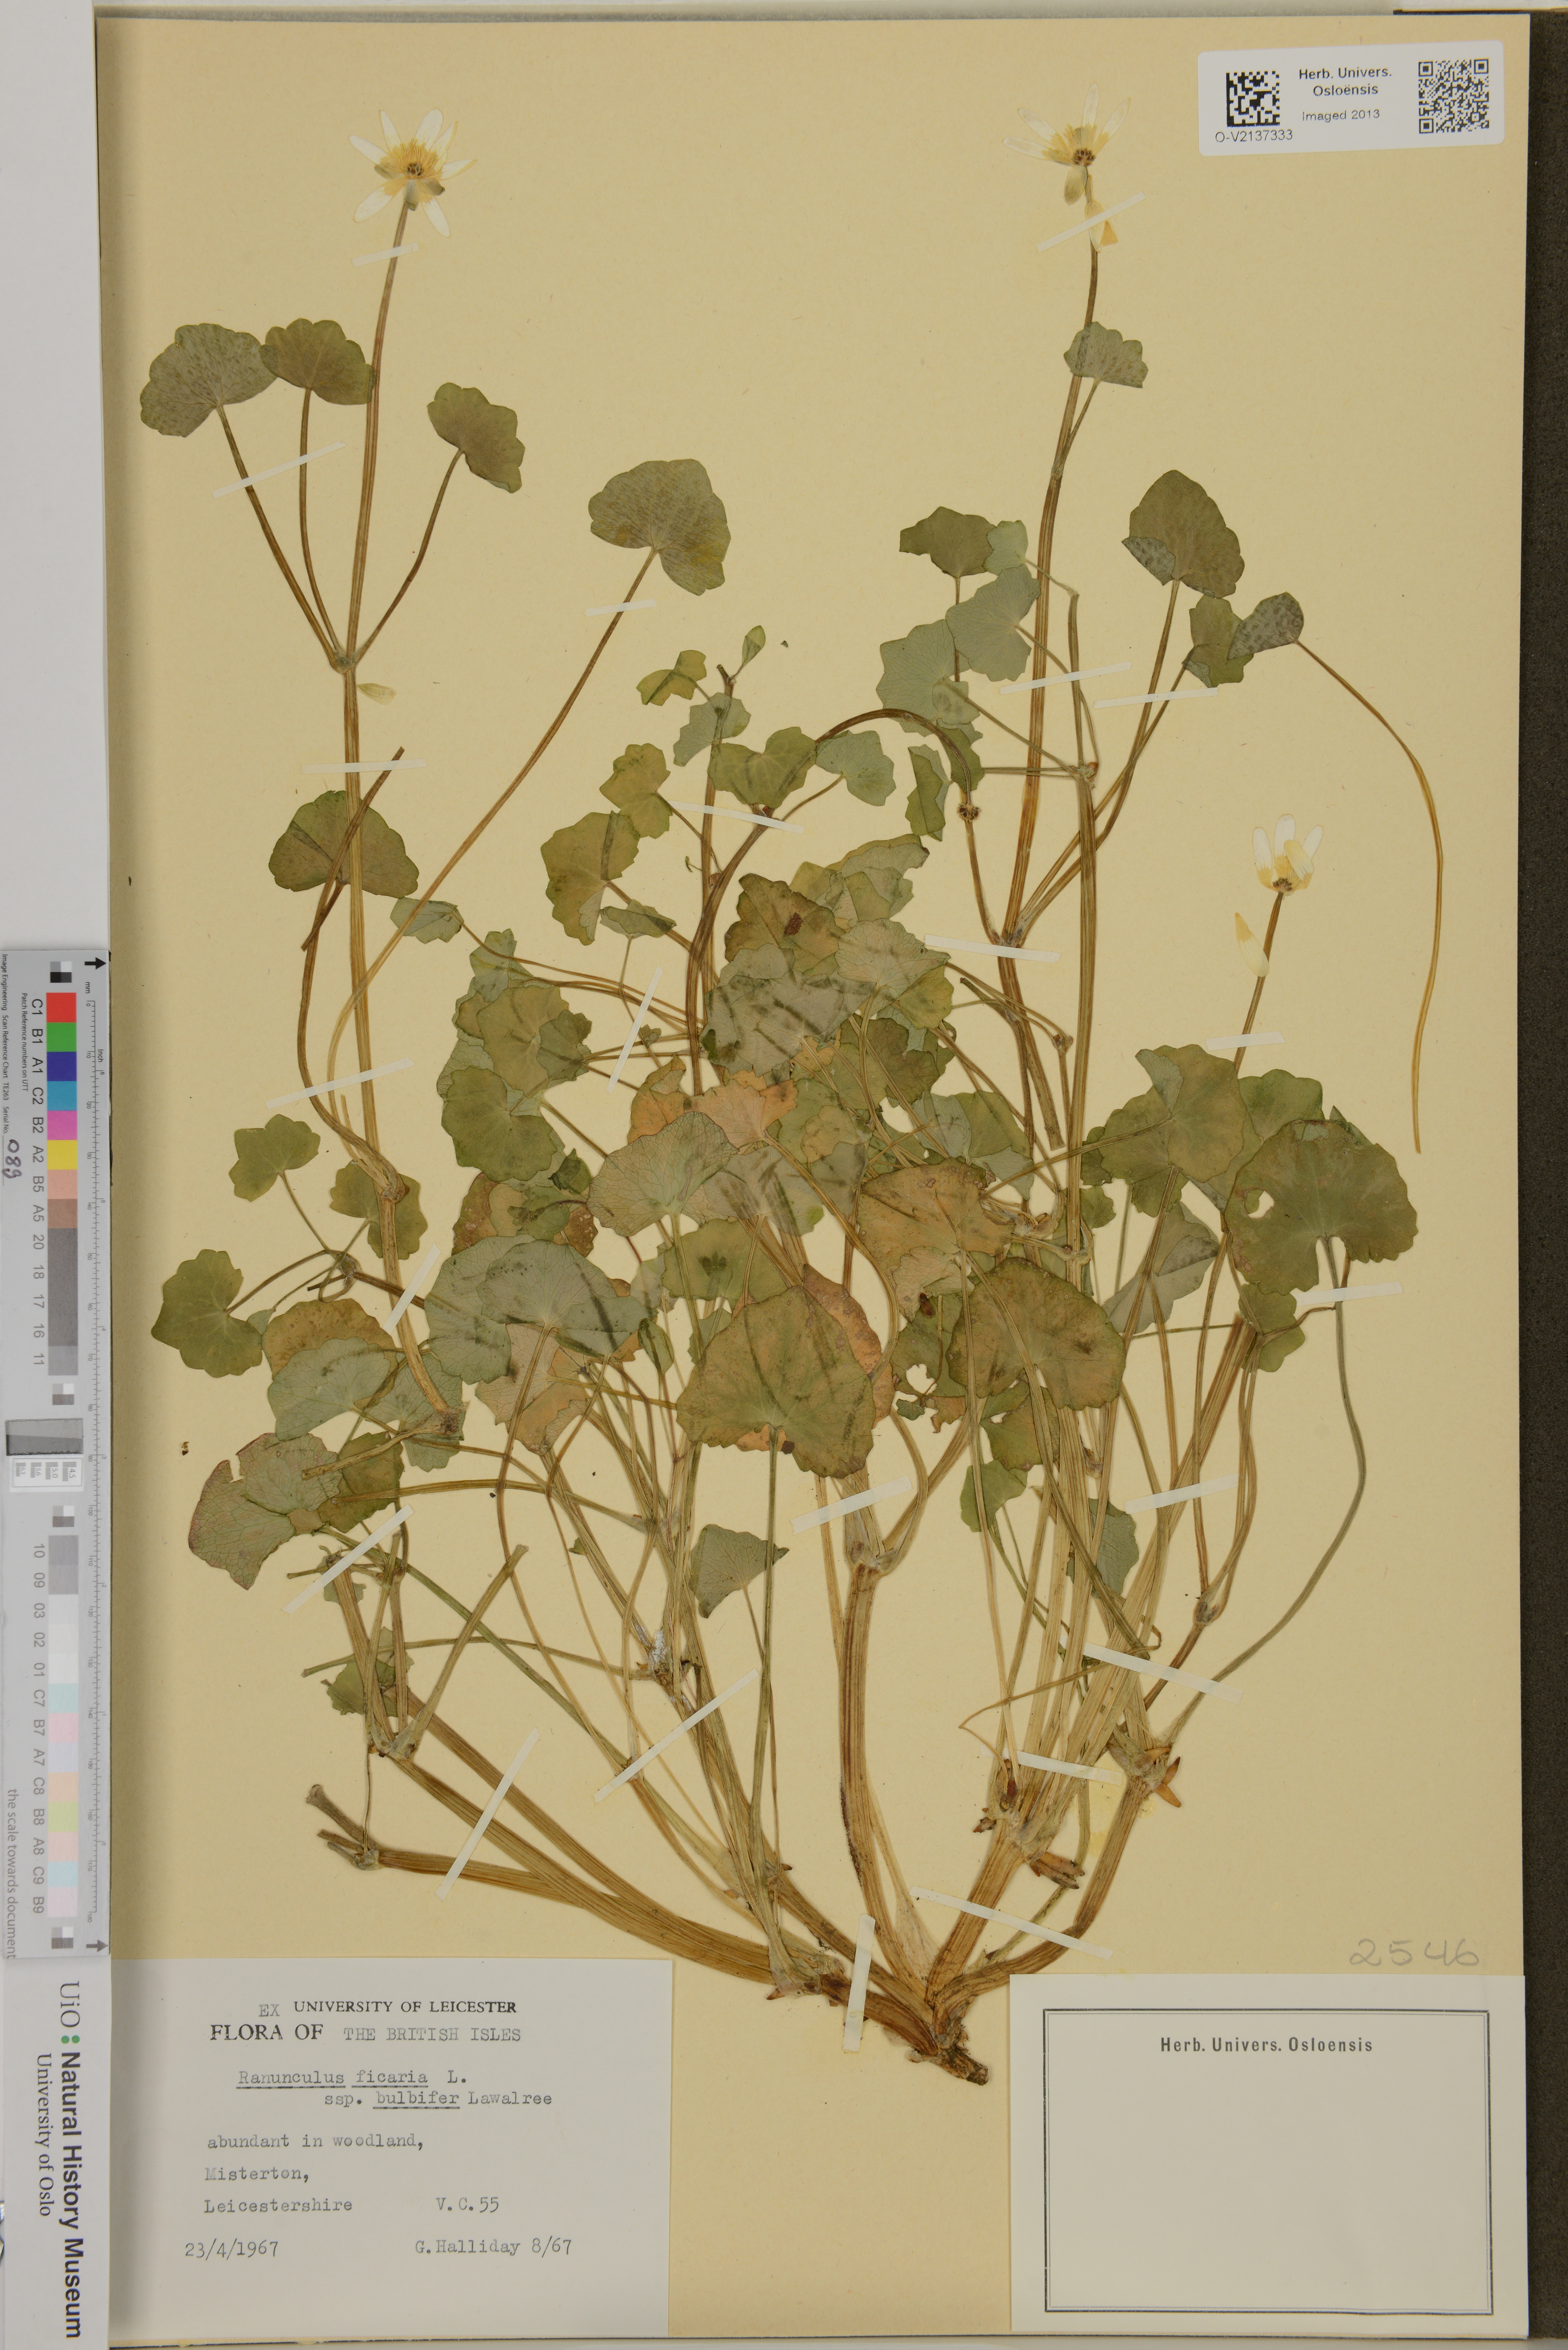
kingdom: Plantae
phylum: Tracheophyta
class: Magnoliopsida
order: Ranunculales
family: Ranunculaceae
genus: Ficaria
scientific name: Ficaria verna
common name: Lesser celandine
